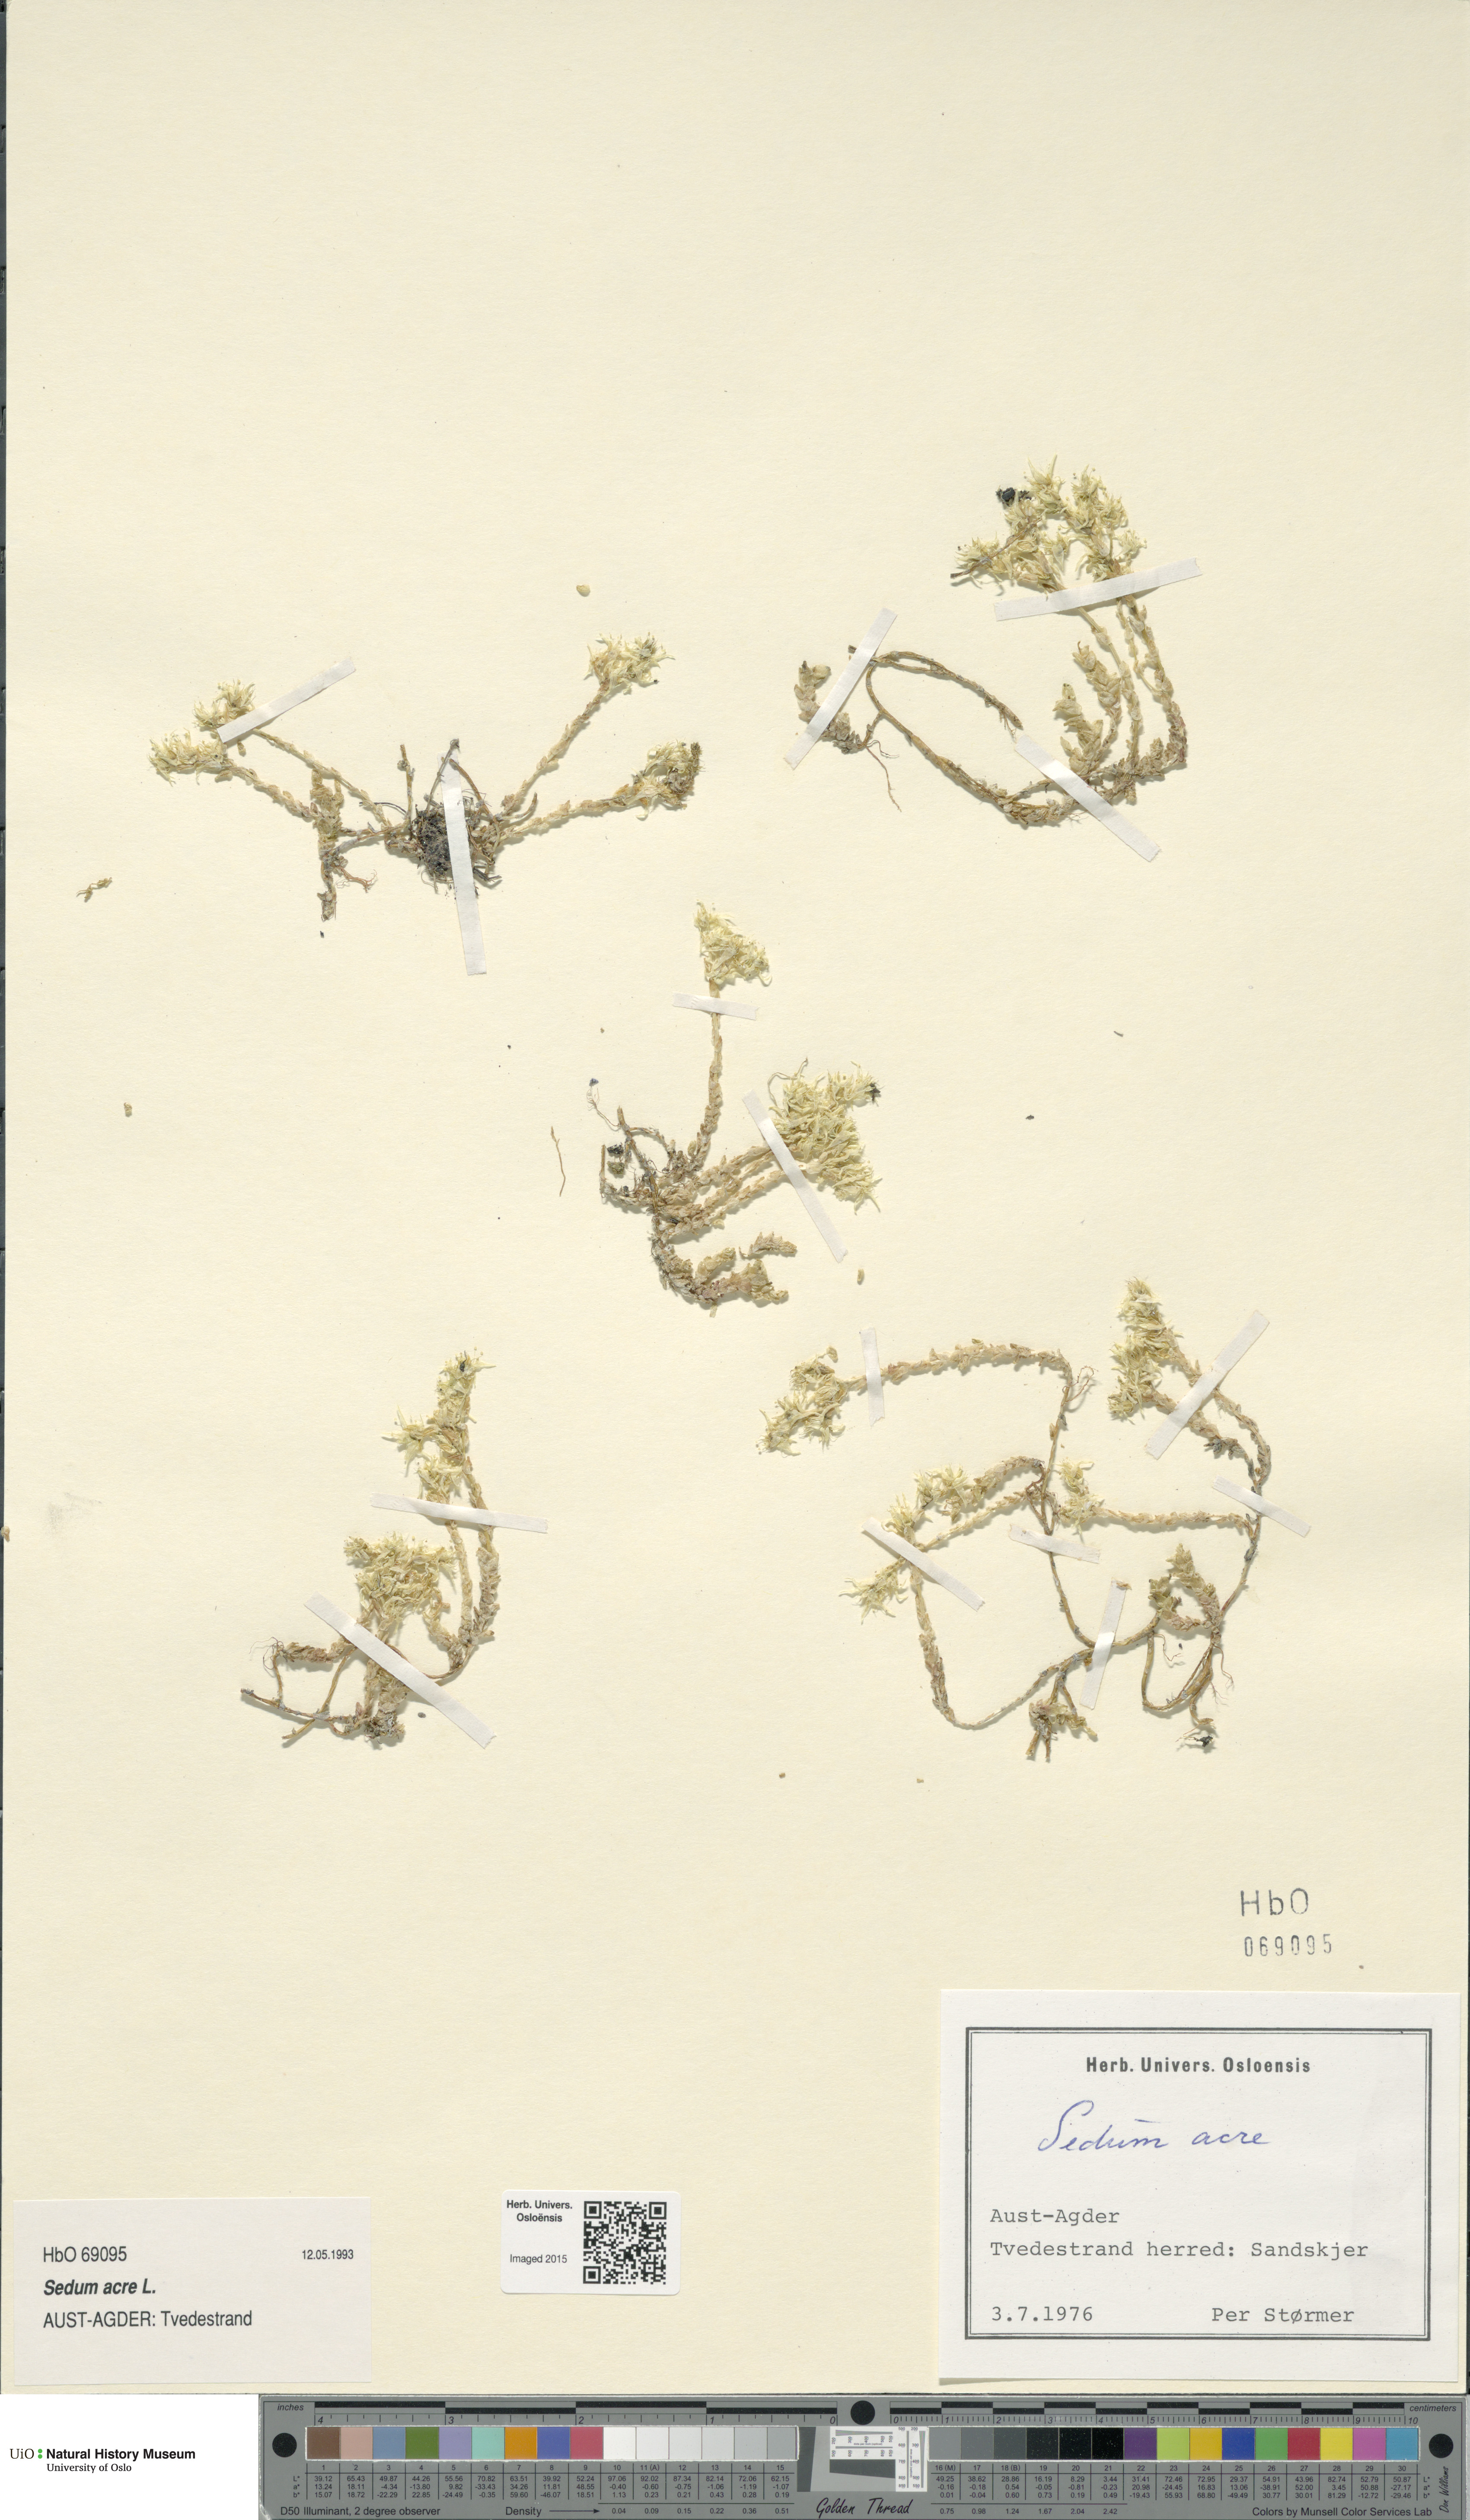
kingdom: Plantae
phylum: Tracheophyta
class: Magnoliopsida
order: Saxifragales
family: Crassulaceae
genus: Sedum
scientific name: Sedum acre
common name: Biting stonecrop
